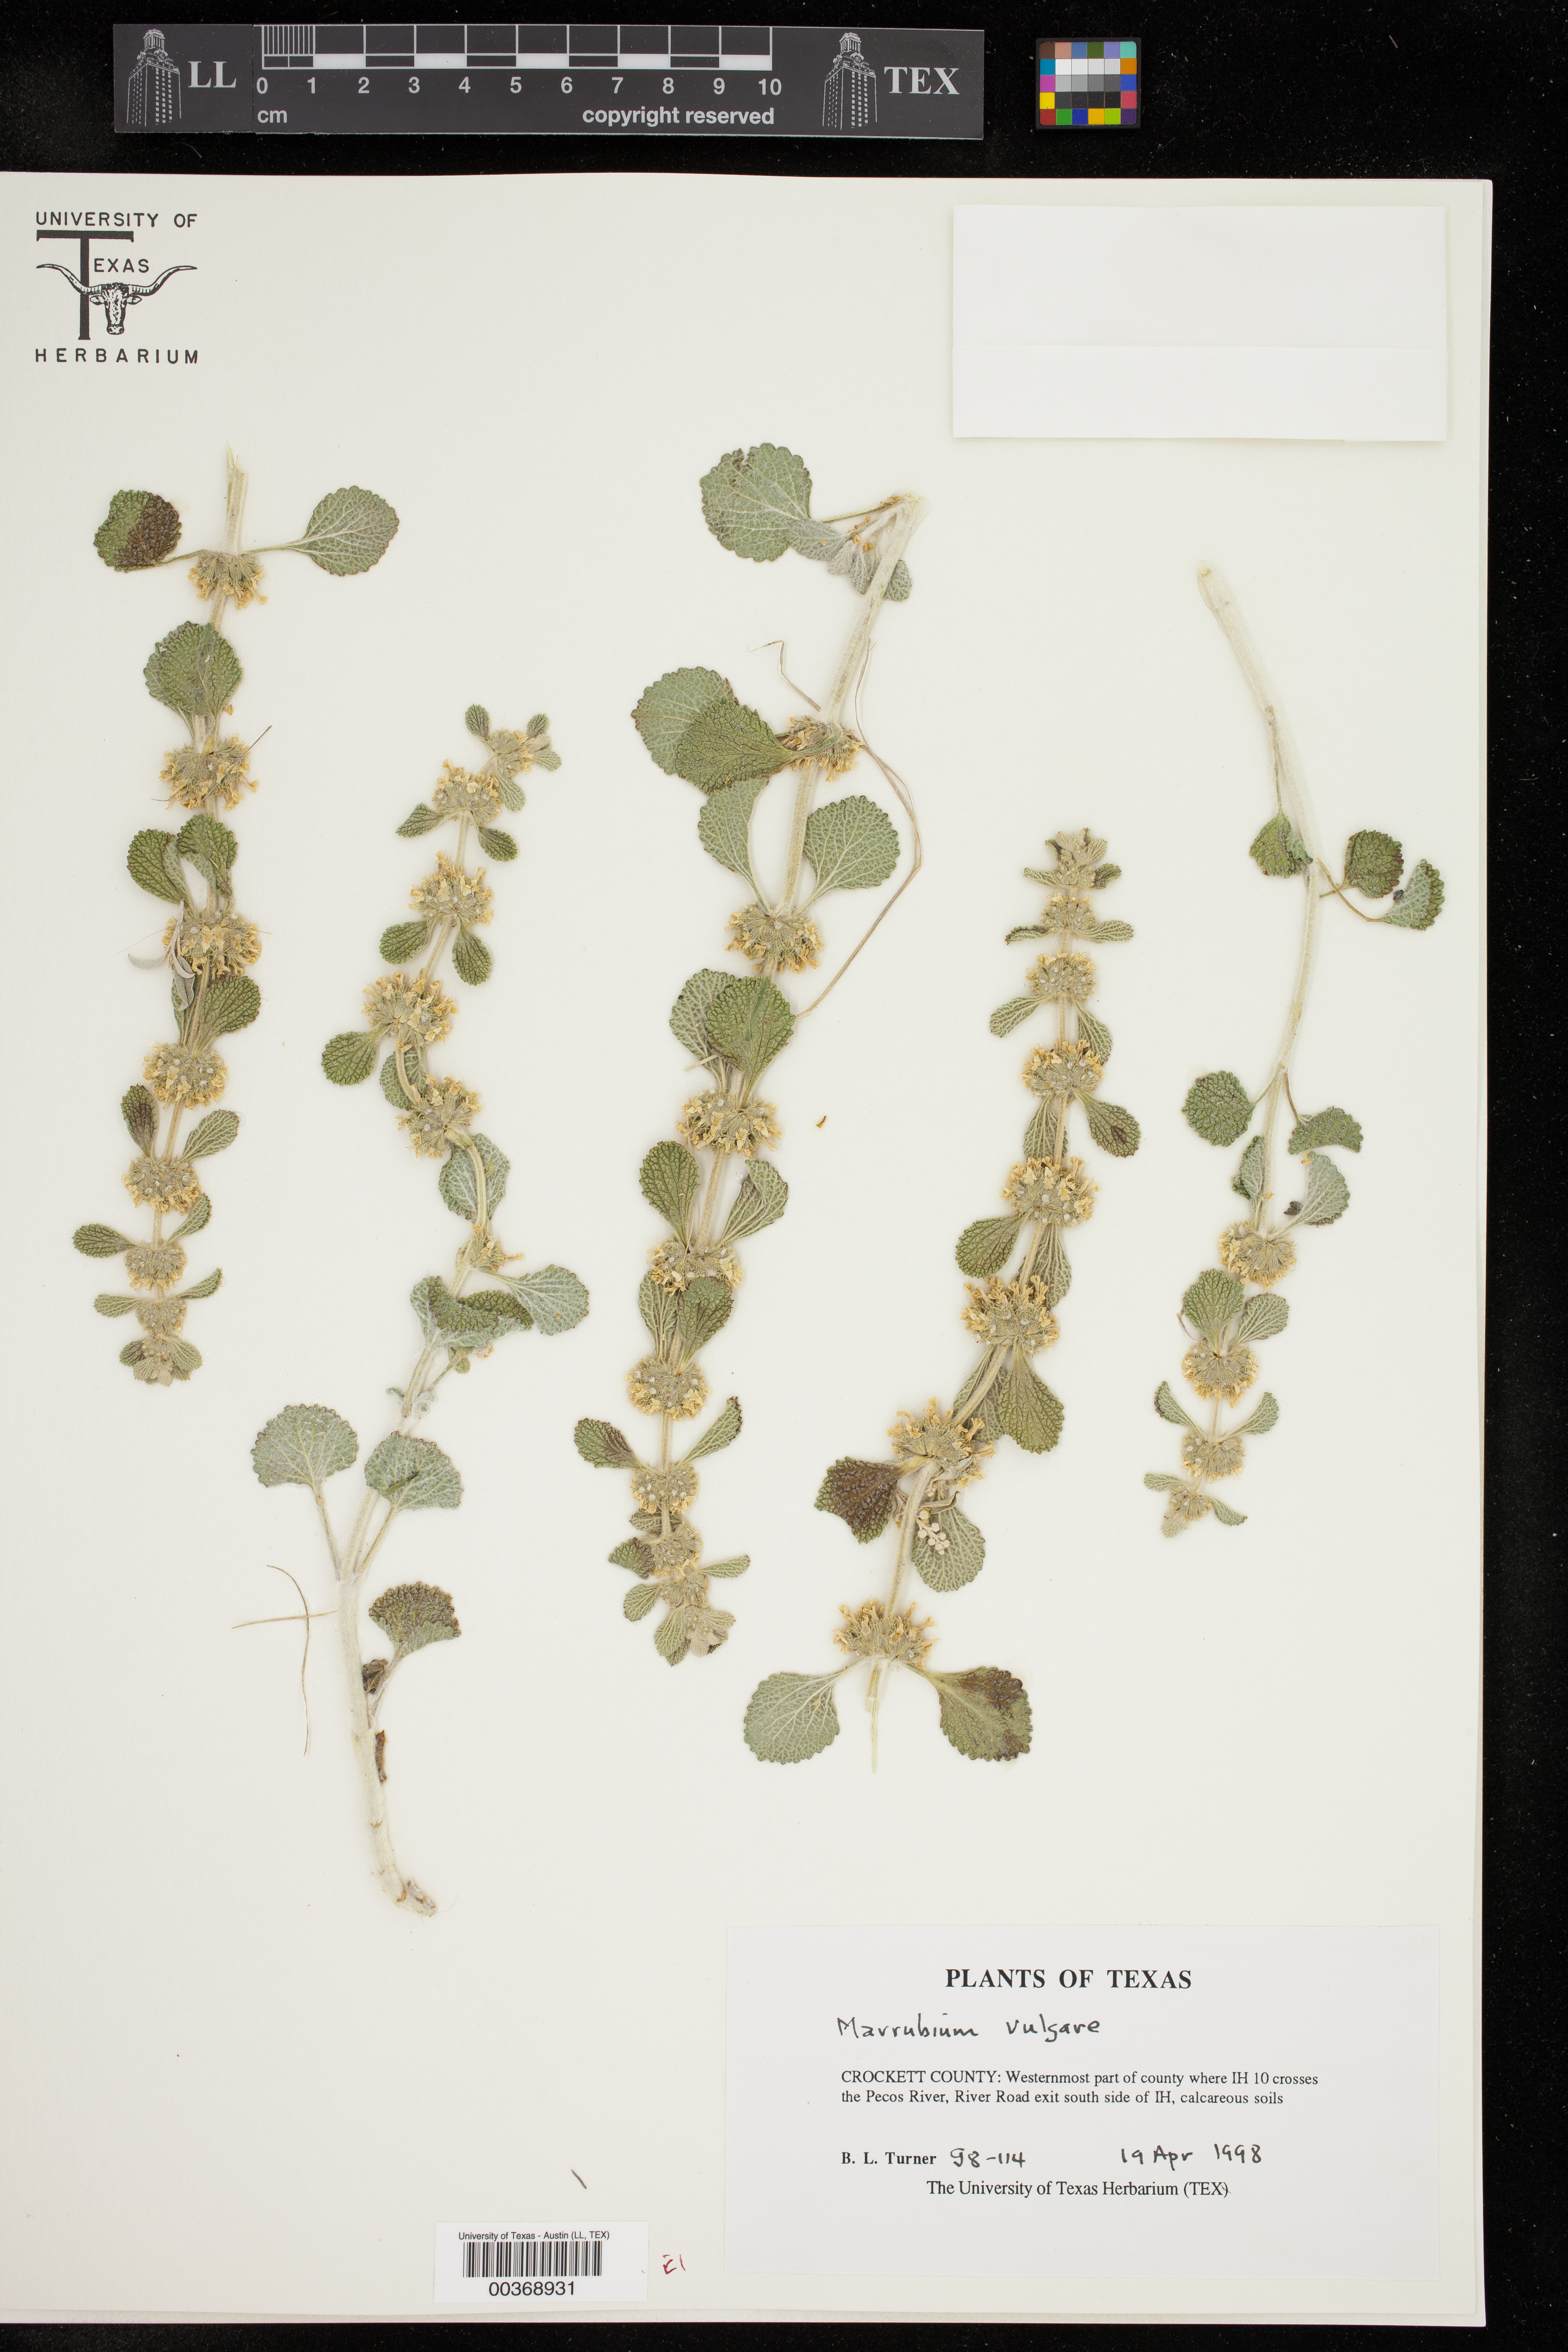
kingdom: Plantae
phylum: Tracheophyta
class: Magnoliopsida
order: Lamiales
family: Lamiaceae
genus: Marrubium
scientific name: Marrubium vulgare
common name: Horehound
